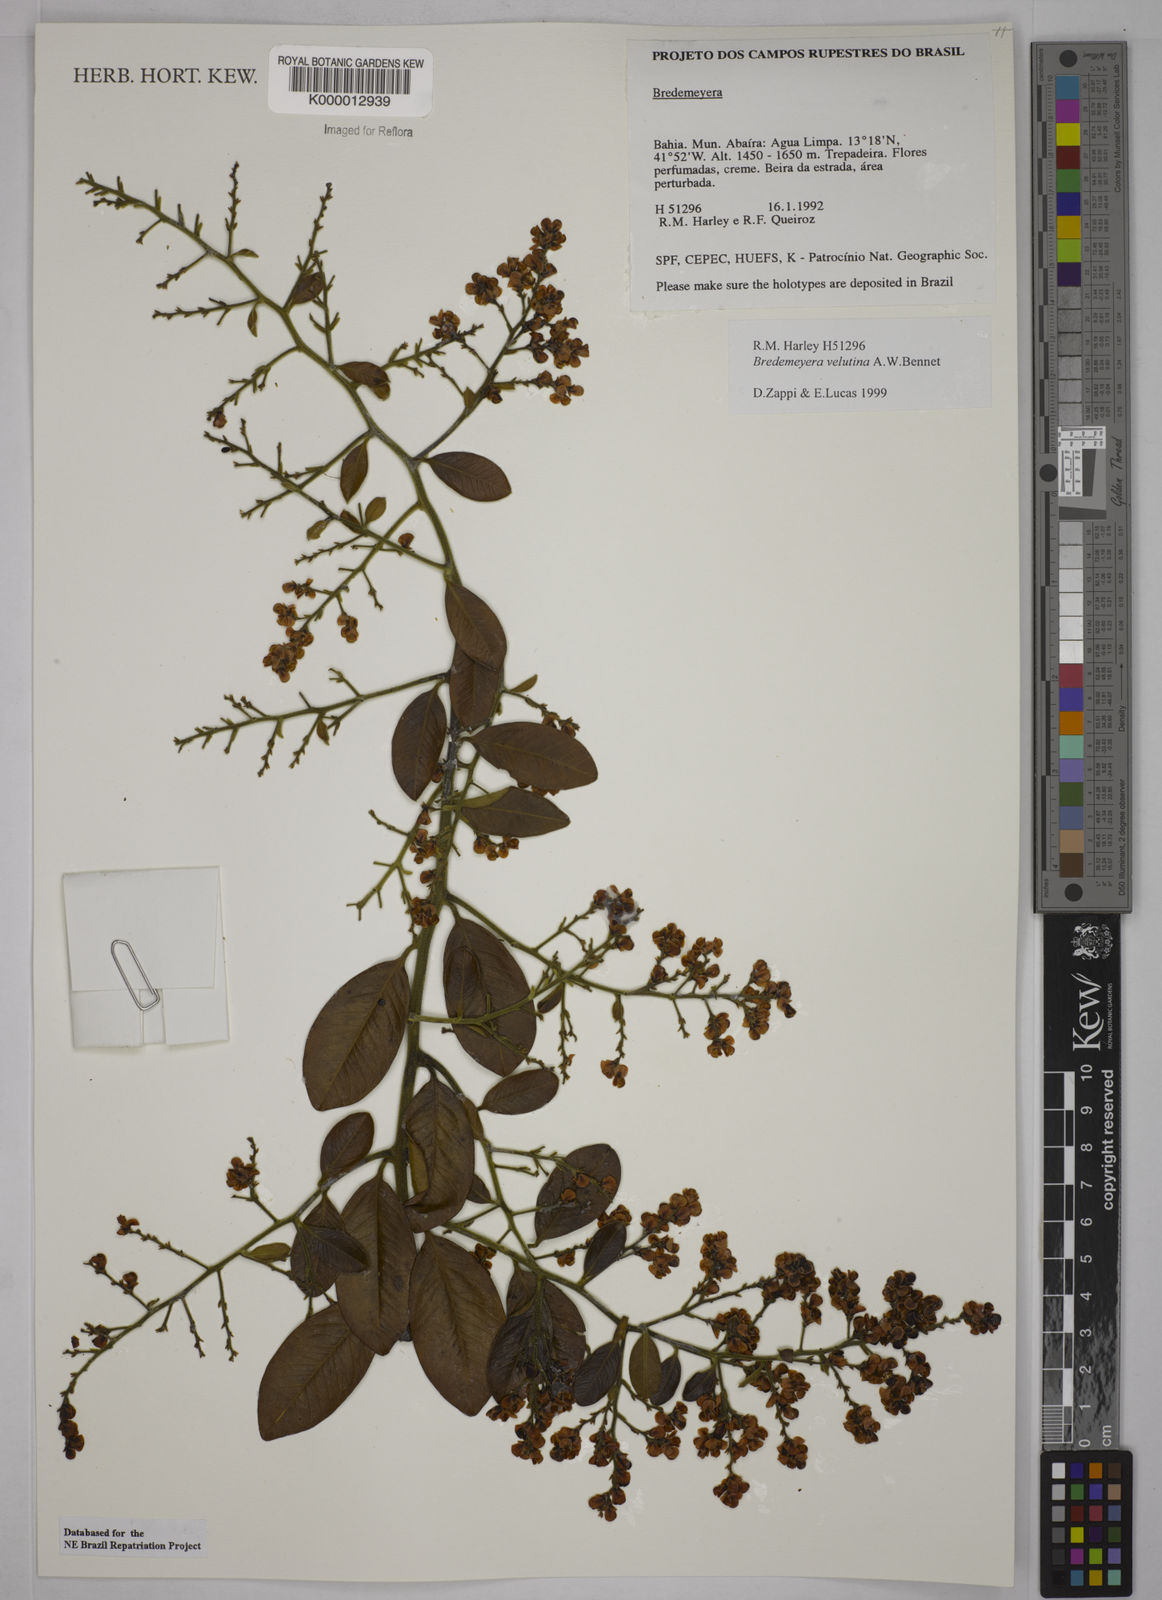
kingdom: Plantae
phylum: Tracheophyta
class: Magnoliopsida
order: Fabales
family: Polygalaceae
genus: Bredemeyera
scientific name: Bredemeyera hebeclada
